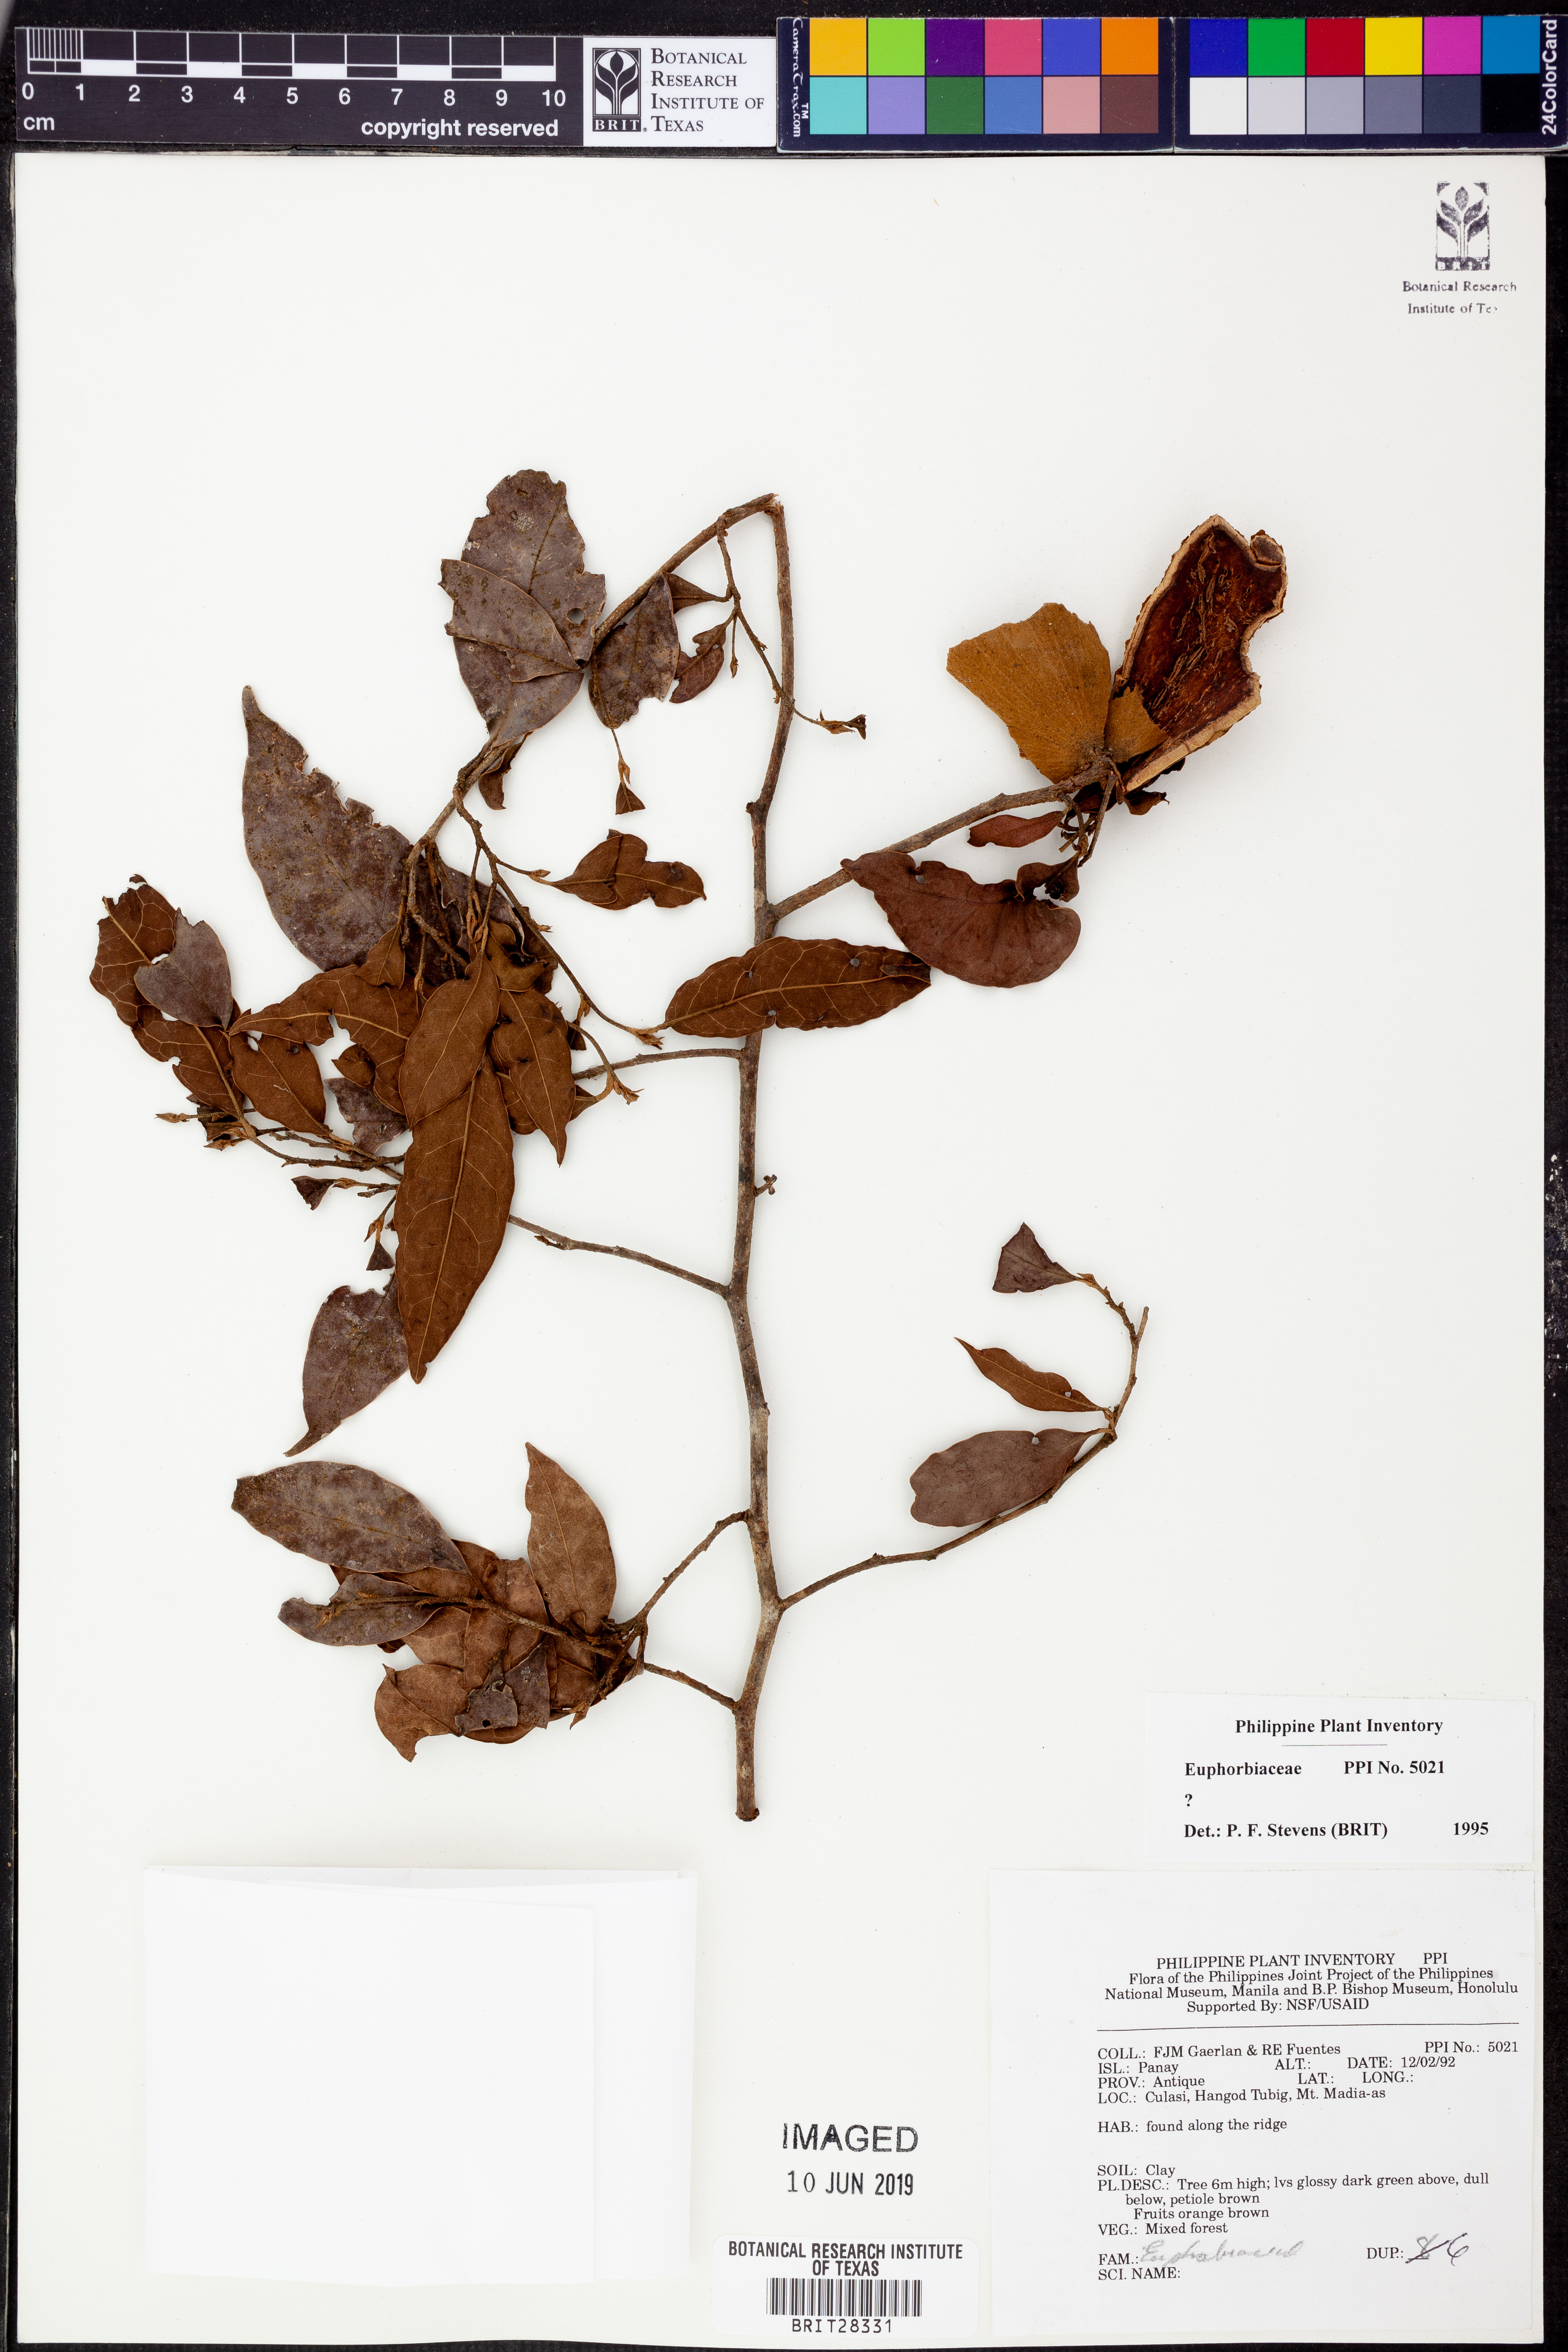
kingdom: Plantae
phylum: Tracheophyta
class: Magnoliopsida
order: Malpighiales
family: Euphorbiaceae
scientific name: Euphorbiaceae
